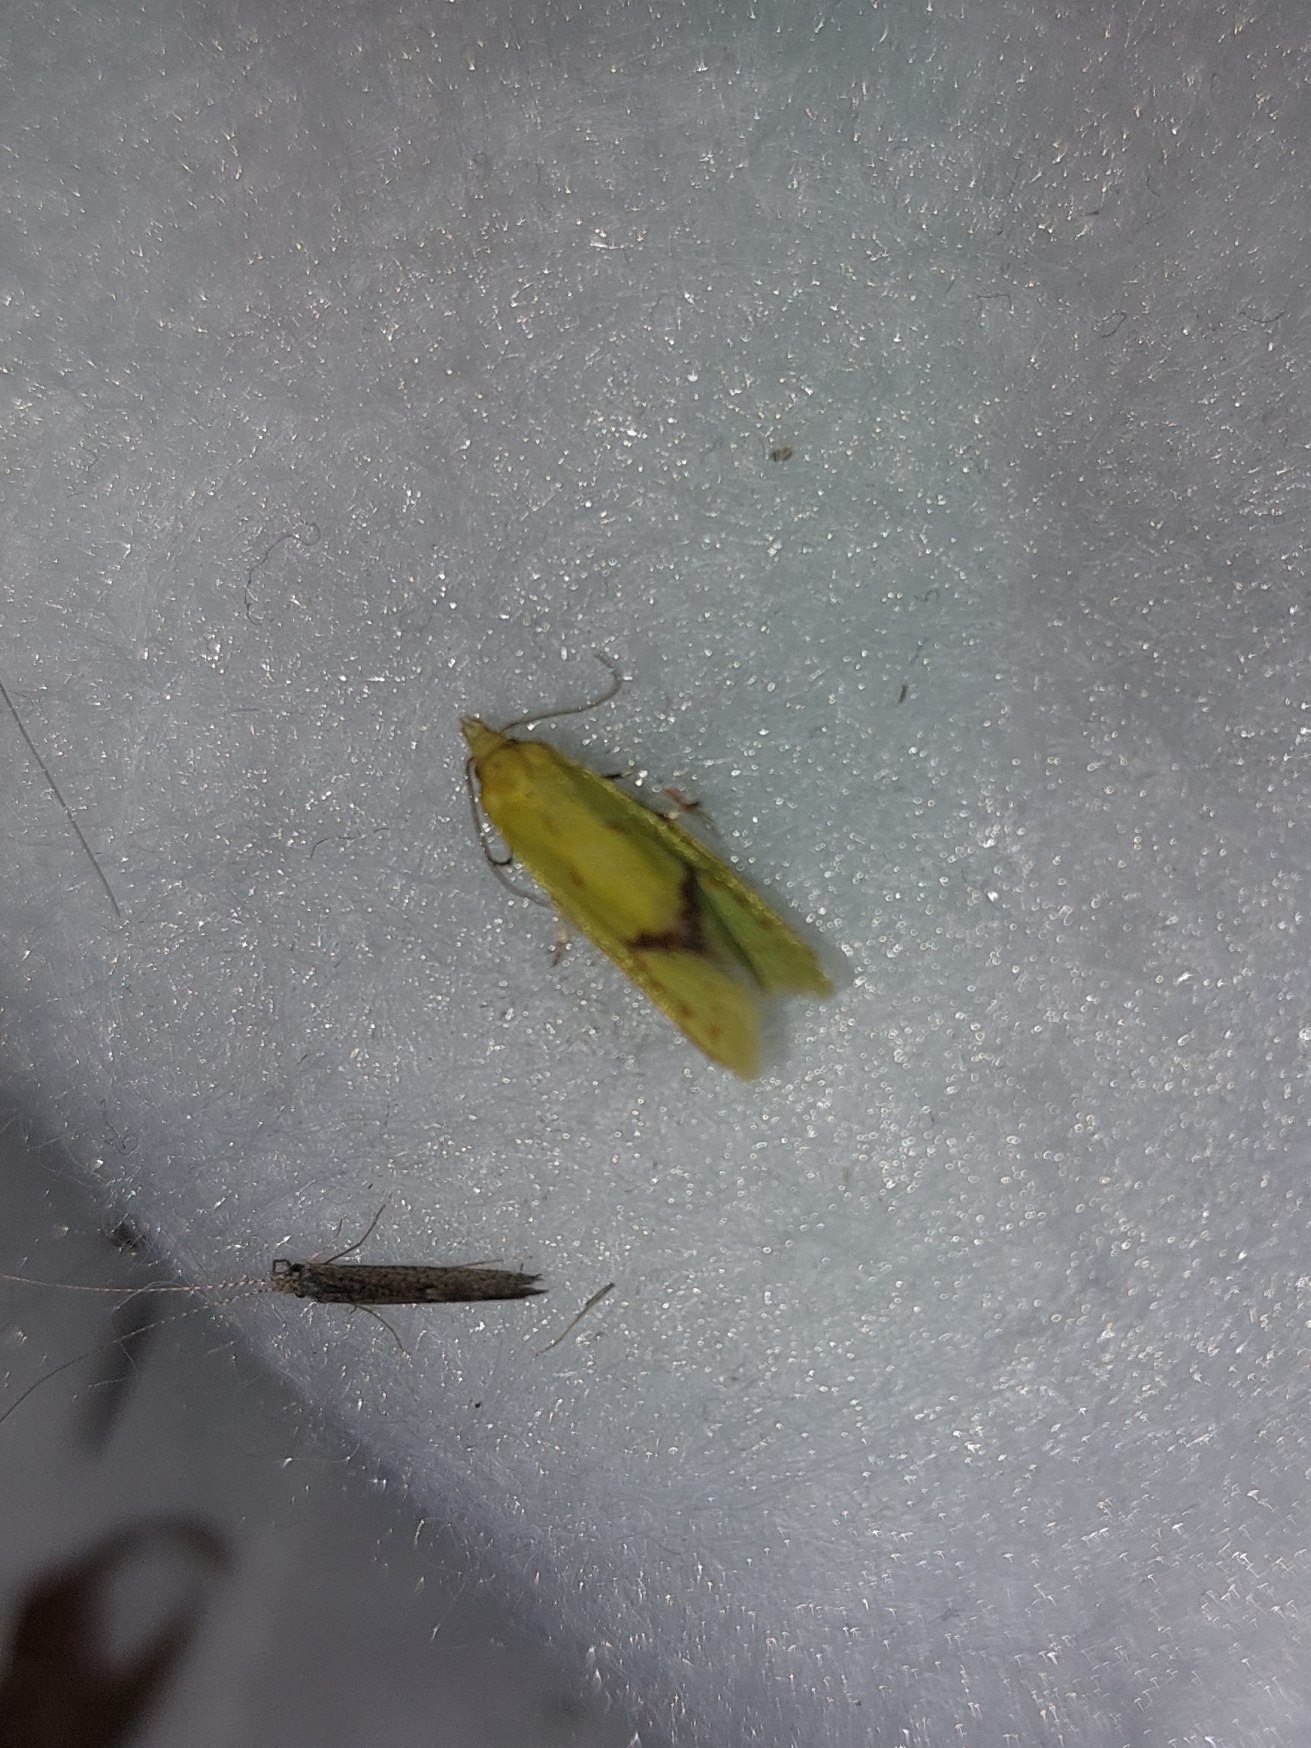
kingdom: Animalia
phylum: Arthropoda
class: Insecta
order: Lepidoptera
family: Tortricidae
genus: Agapeta
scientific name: Agapeta hamana
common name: Tidselgulvikler
